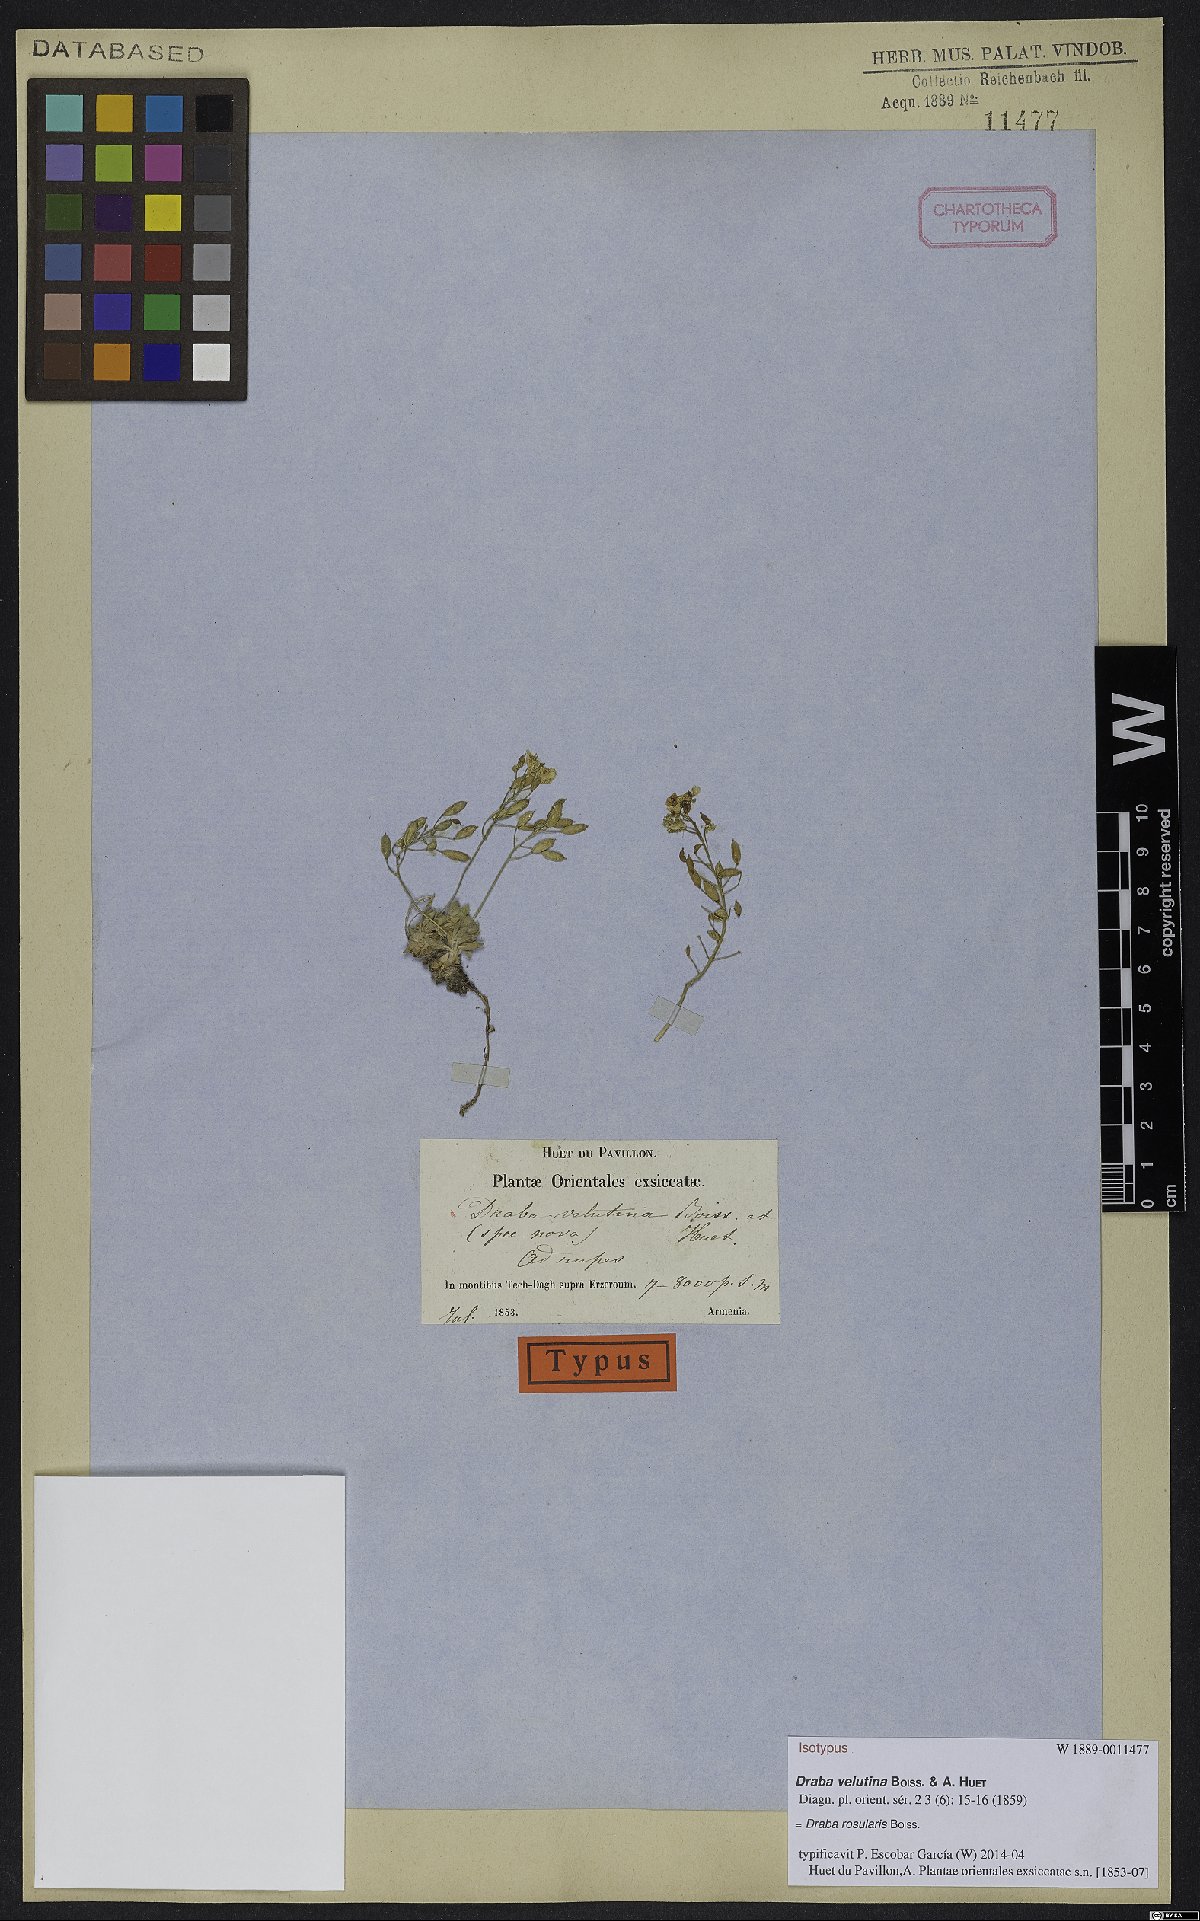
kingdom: Plantae
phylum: Tracheophyta
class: Magnoliopsida
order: Brassicales
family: Brassicaceae
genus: Draba
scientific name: Draba rosularis
